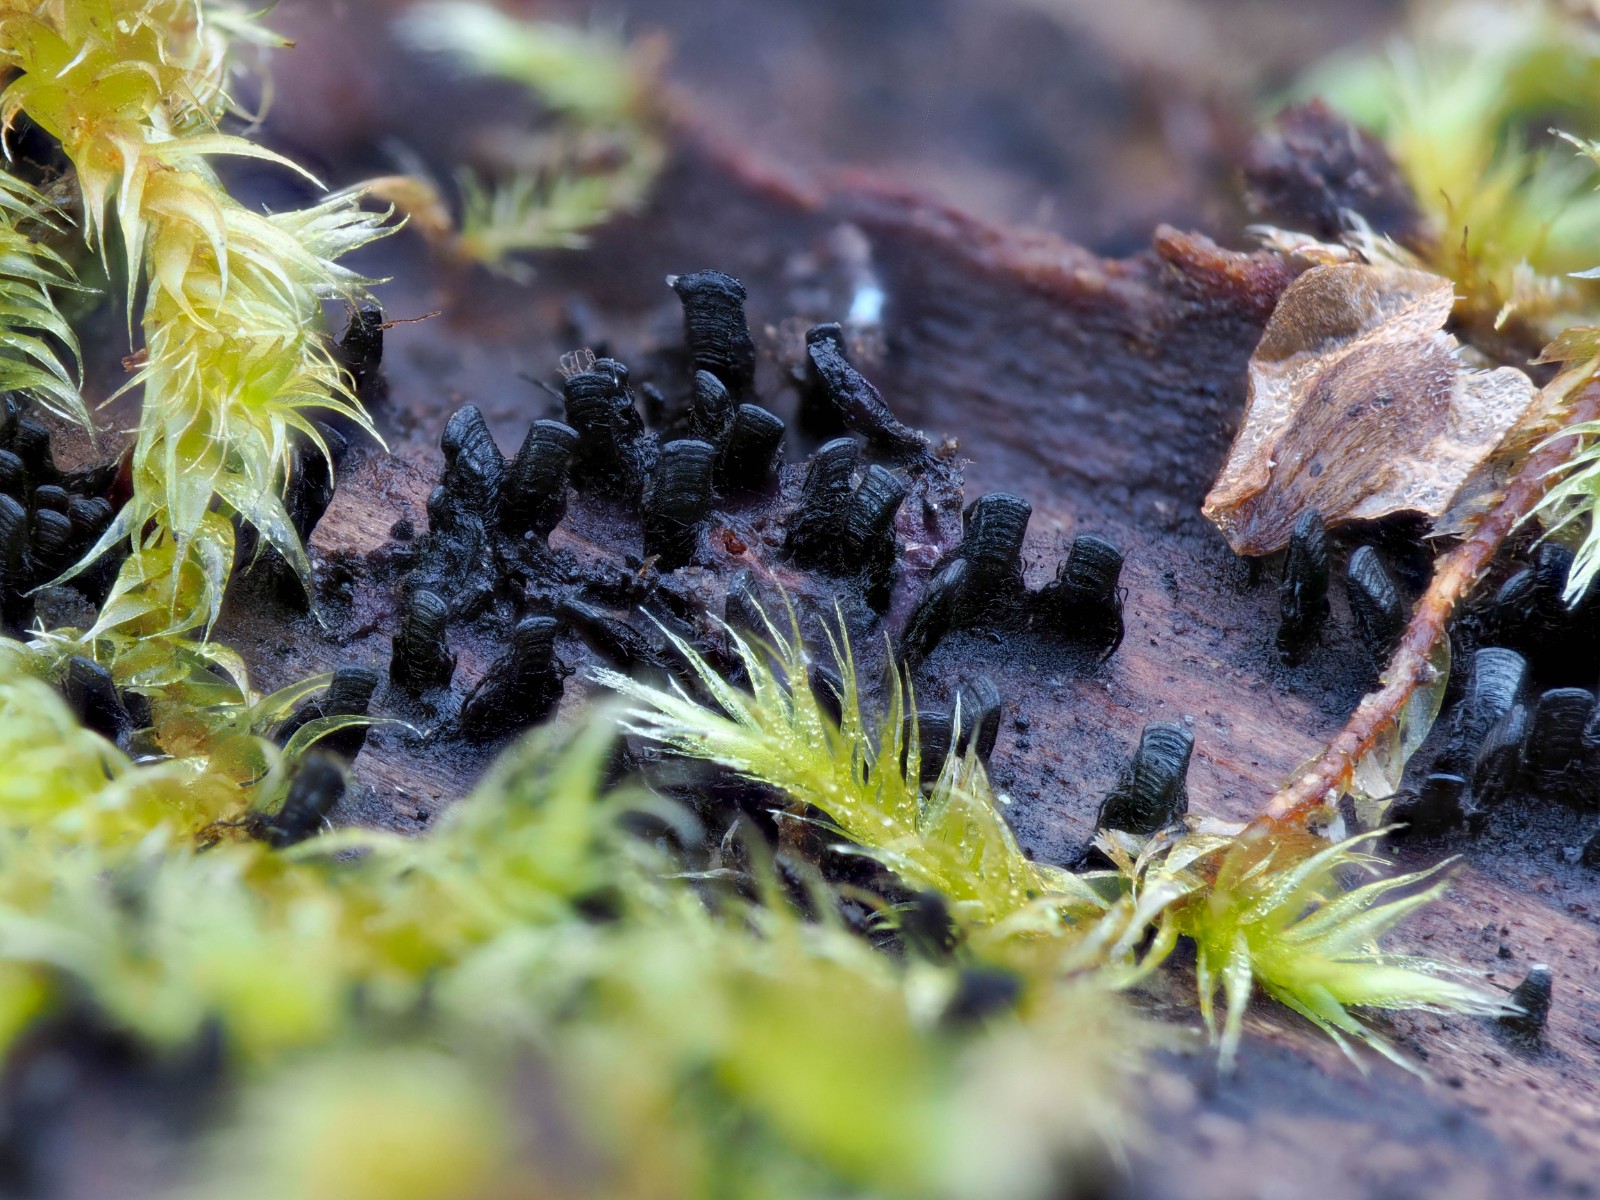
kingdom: Fungi
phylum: Ascomycota
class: Eurotiomycetes
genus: Glyphium
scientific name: Glyphium elatum
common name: kuløkse
